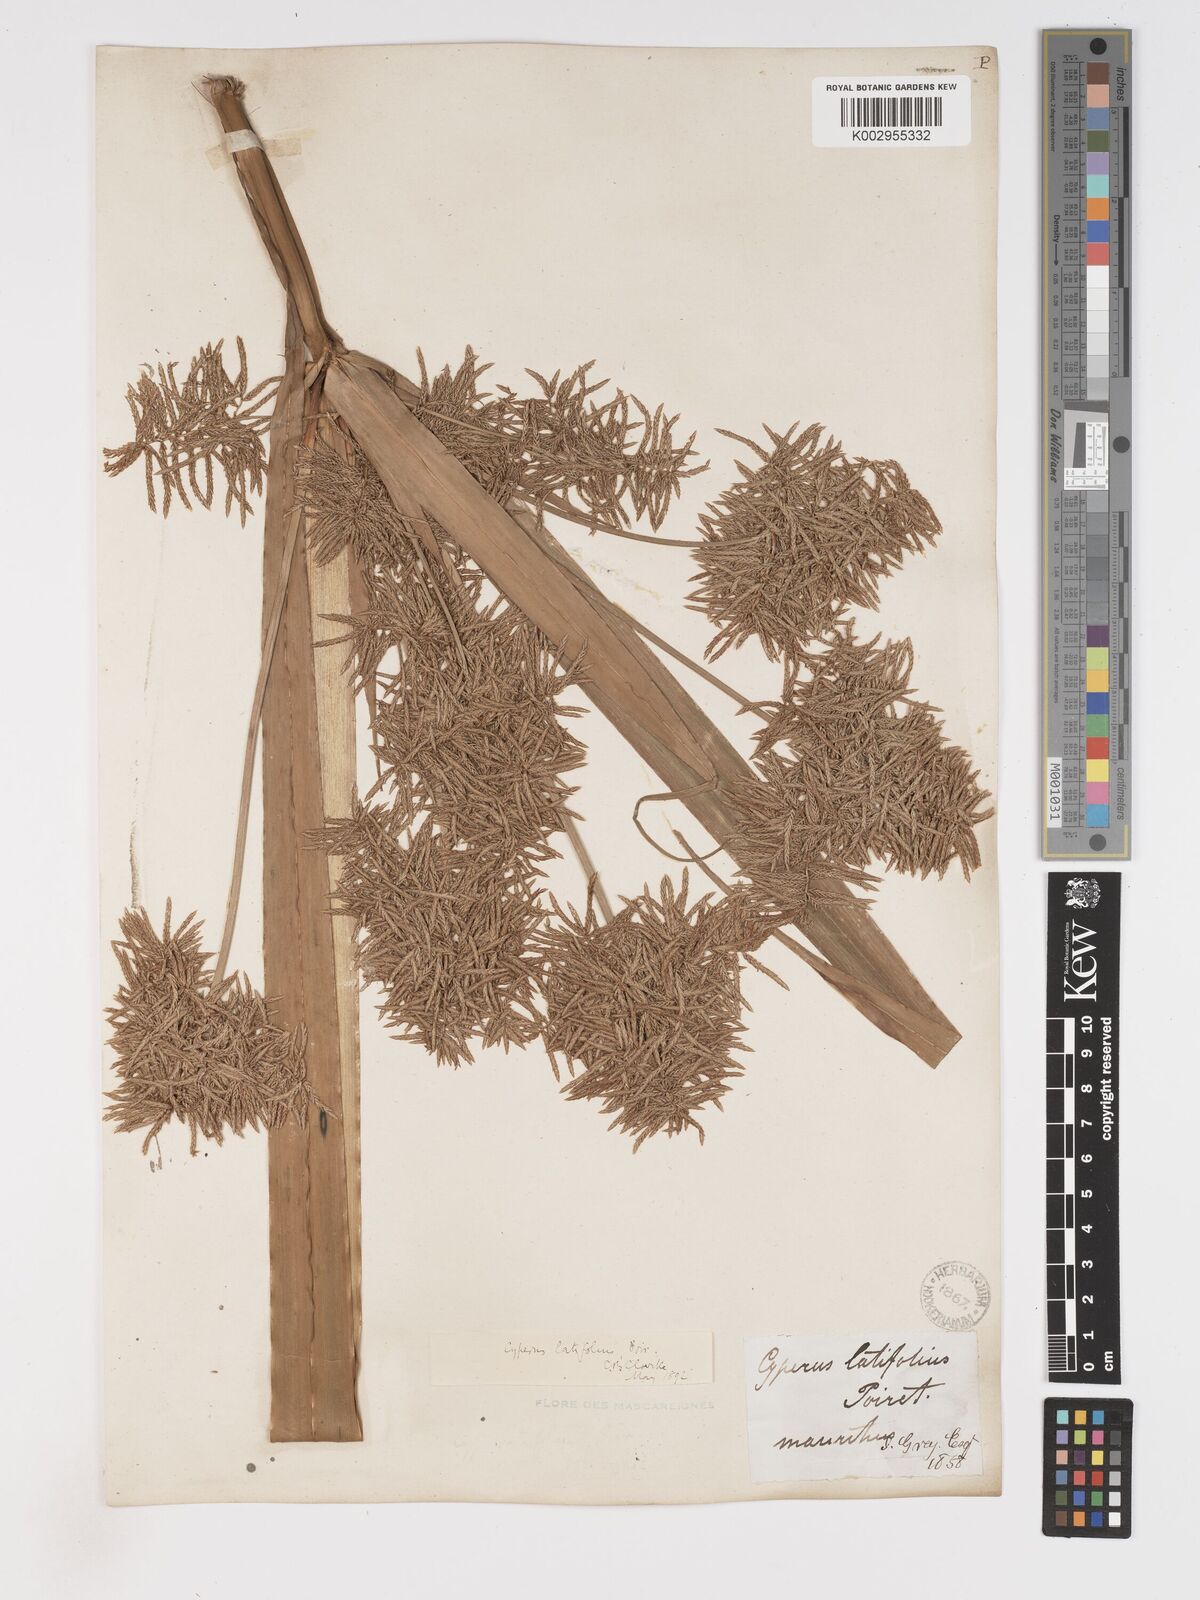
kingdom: Plantae
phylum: Tracheophyta
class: Liliopsida
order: Poales
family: Cyperaceae
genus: Cyperus
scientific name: Cyperus latifolius
